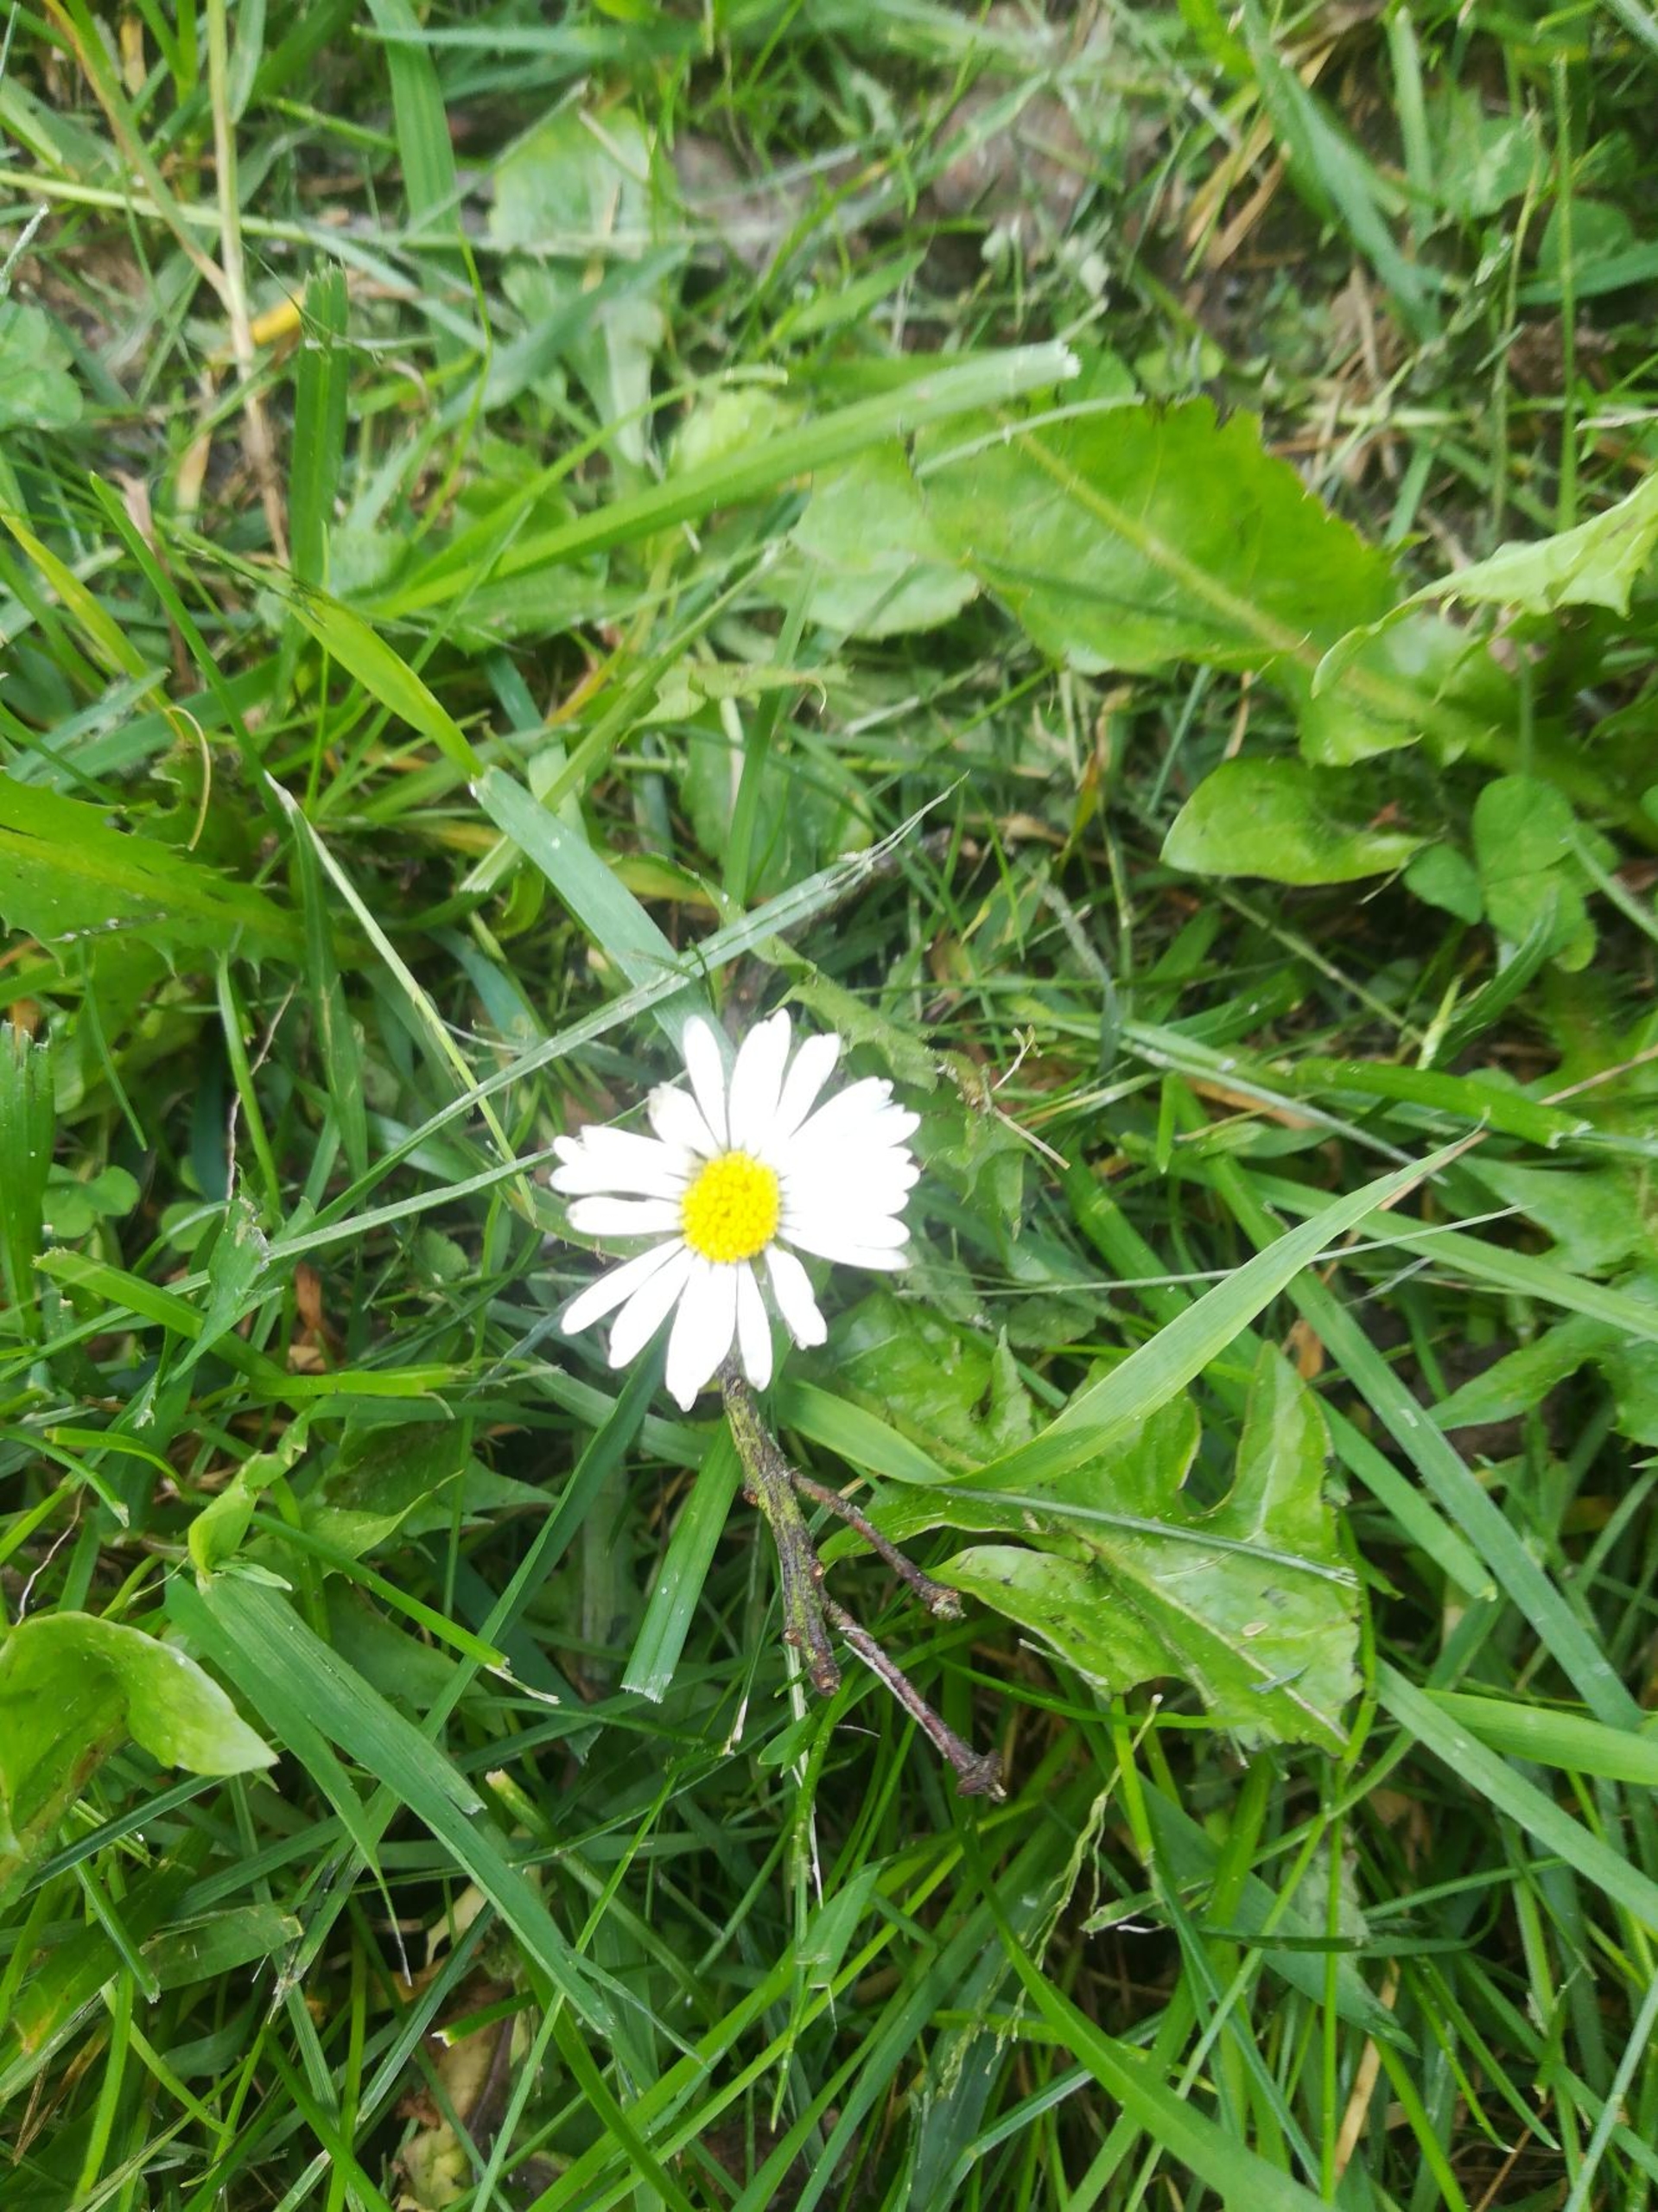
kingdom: Plantae
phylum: Tracheophyta
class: Magnoliopsida
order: Asterales
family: Asteraceae
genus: Bellis
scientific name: Bellis perennis
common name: Tusindfryd
